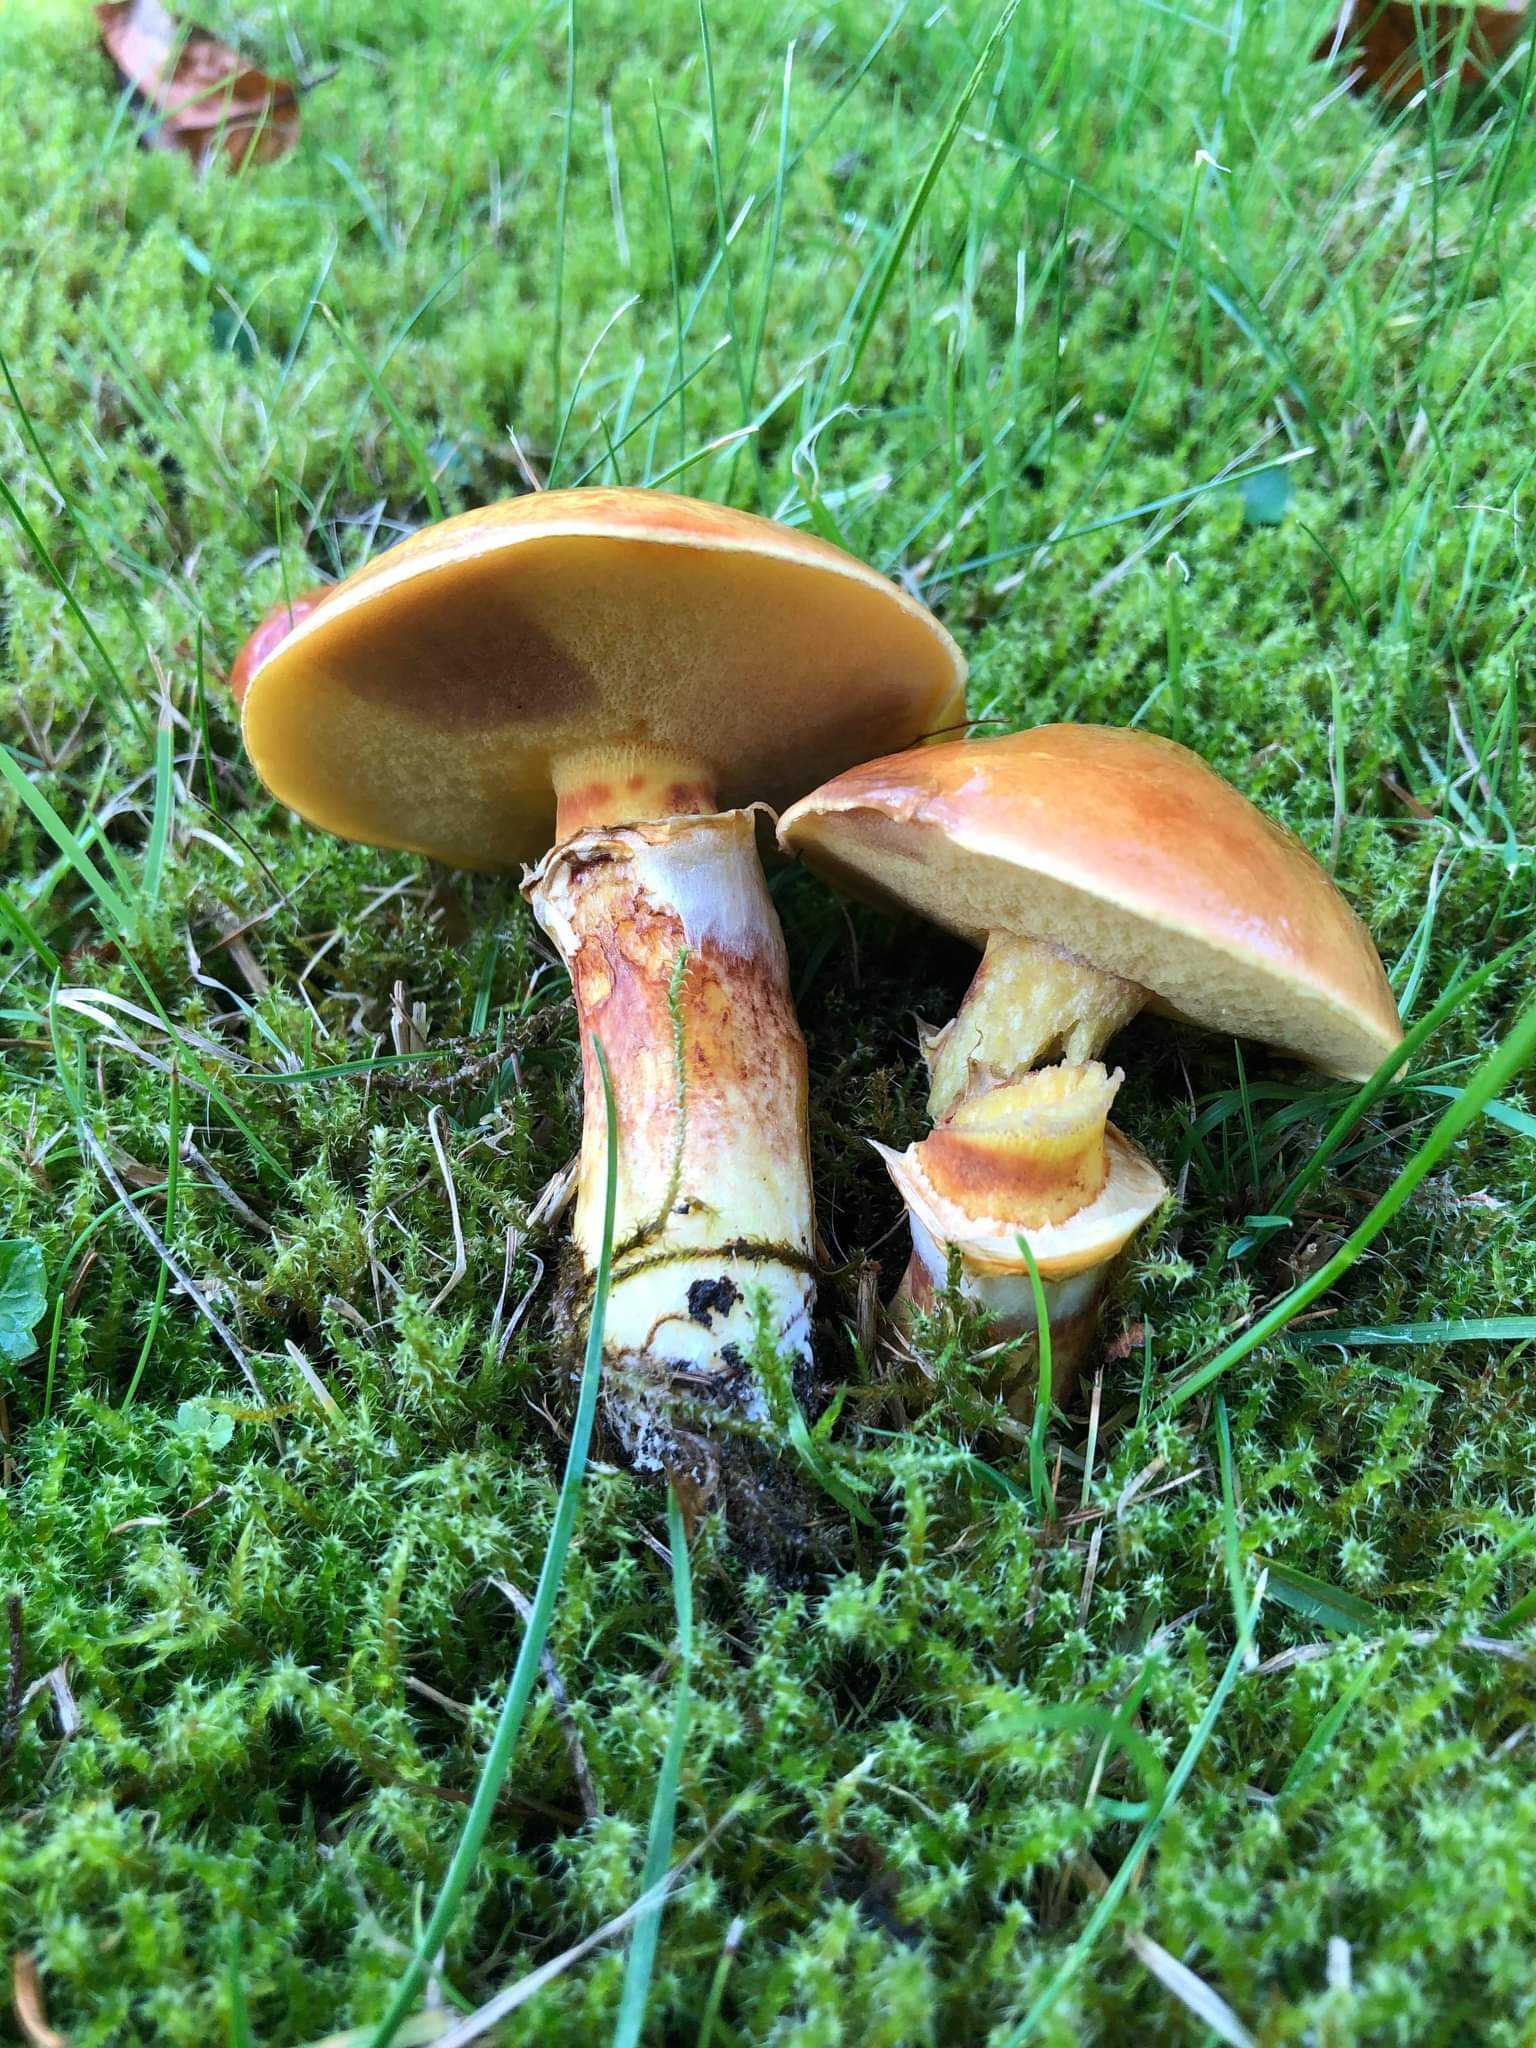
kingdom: Fungi
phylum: Basidiomycota
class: Agaricomycetes
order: Boletales
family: Suillaceae
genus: Suillus
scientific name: Suillus grevillei
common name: lærke-slimrørhat
